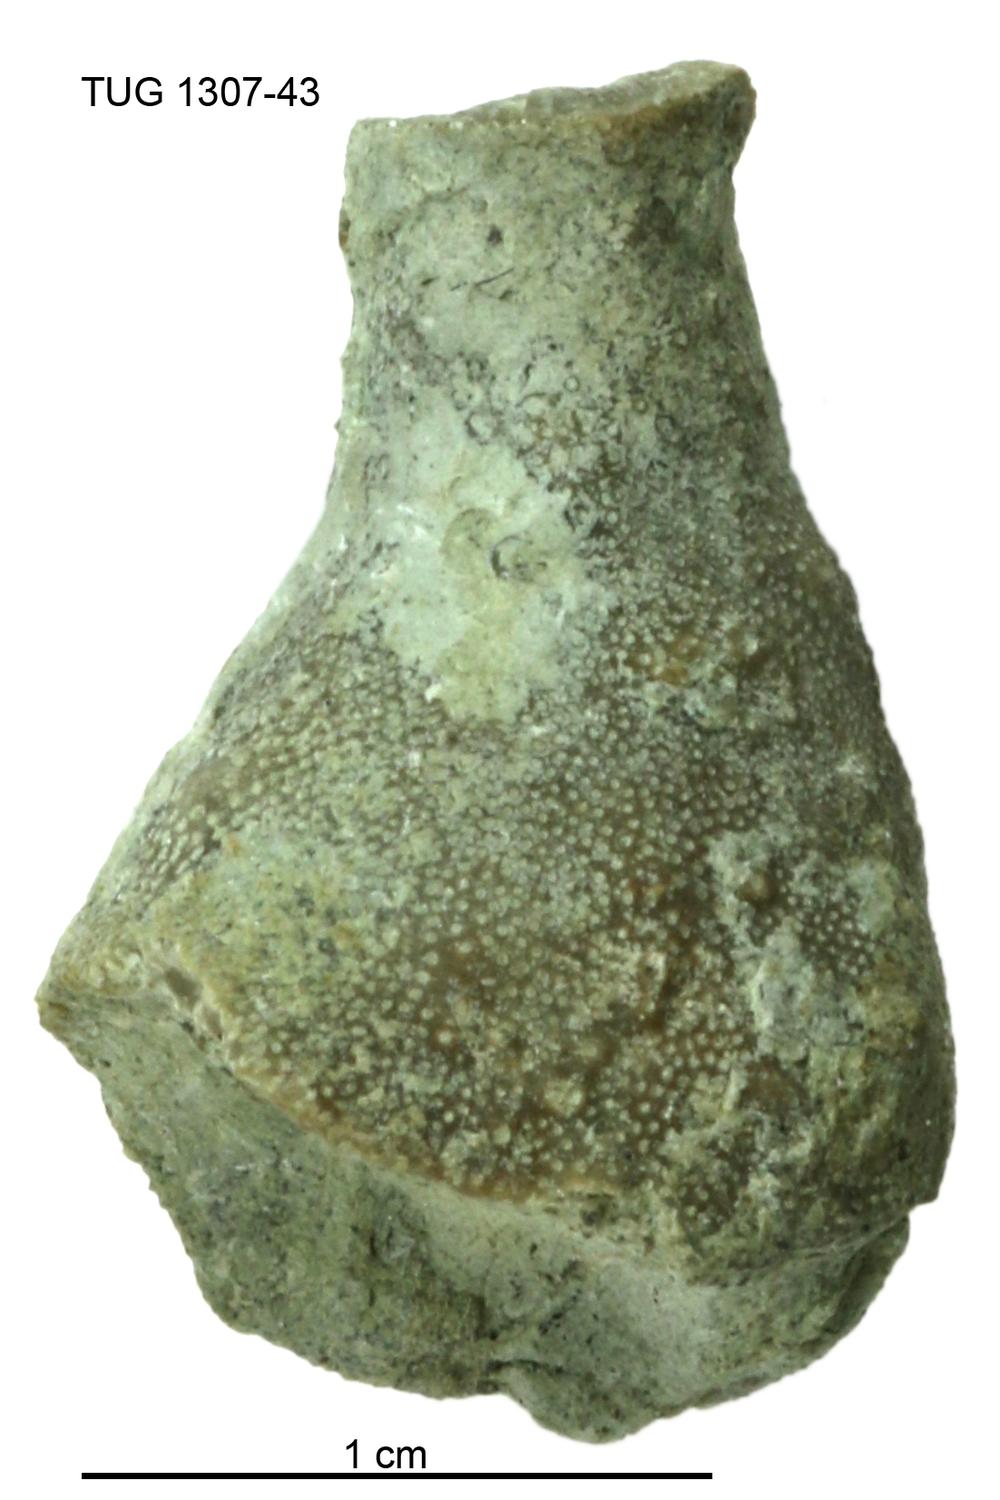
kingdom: Animalia
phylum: Bryozoa
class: Stenolaemata
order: Cystoporida
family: Fistuliporidae
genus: Fistulipora
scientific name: Fistulipora przhidolensis
